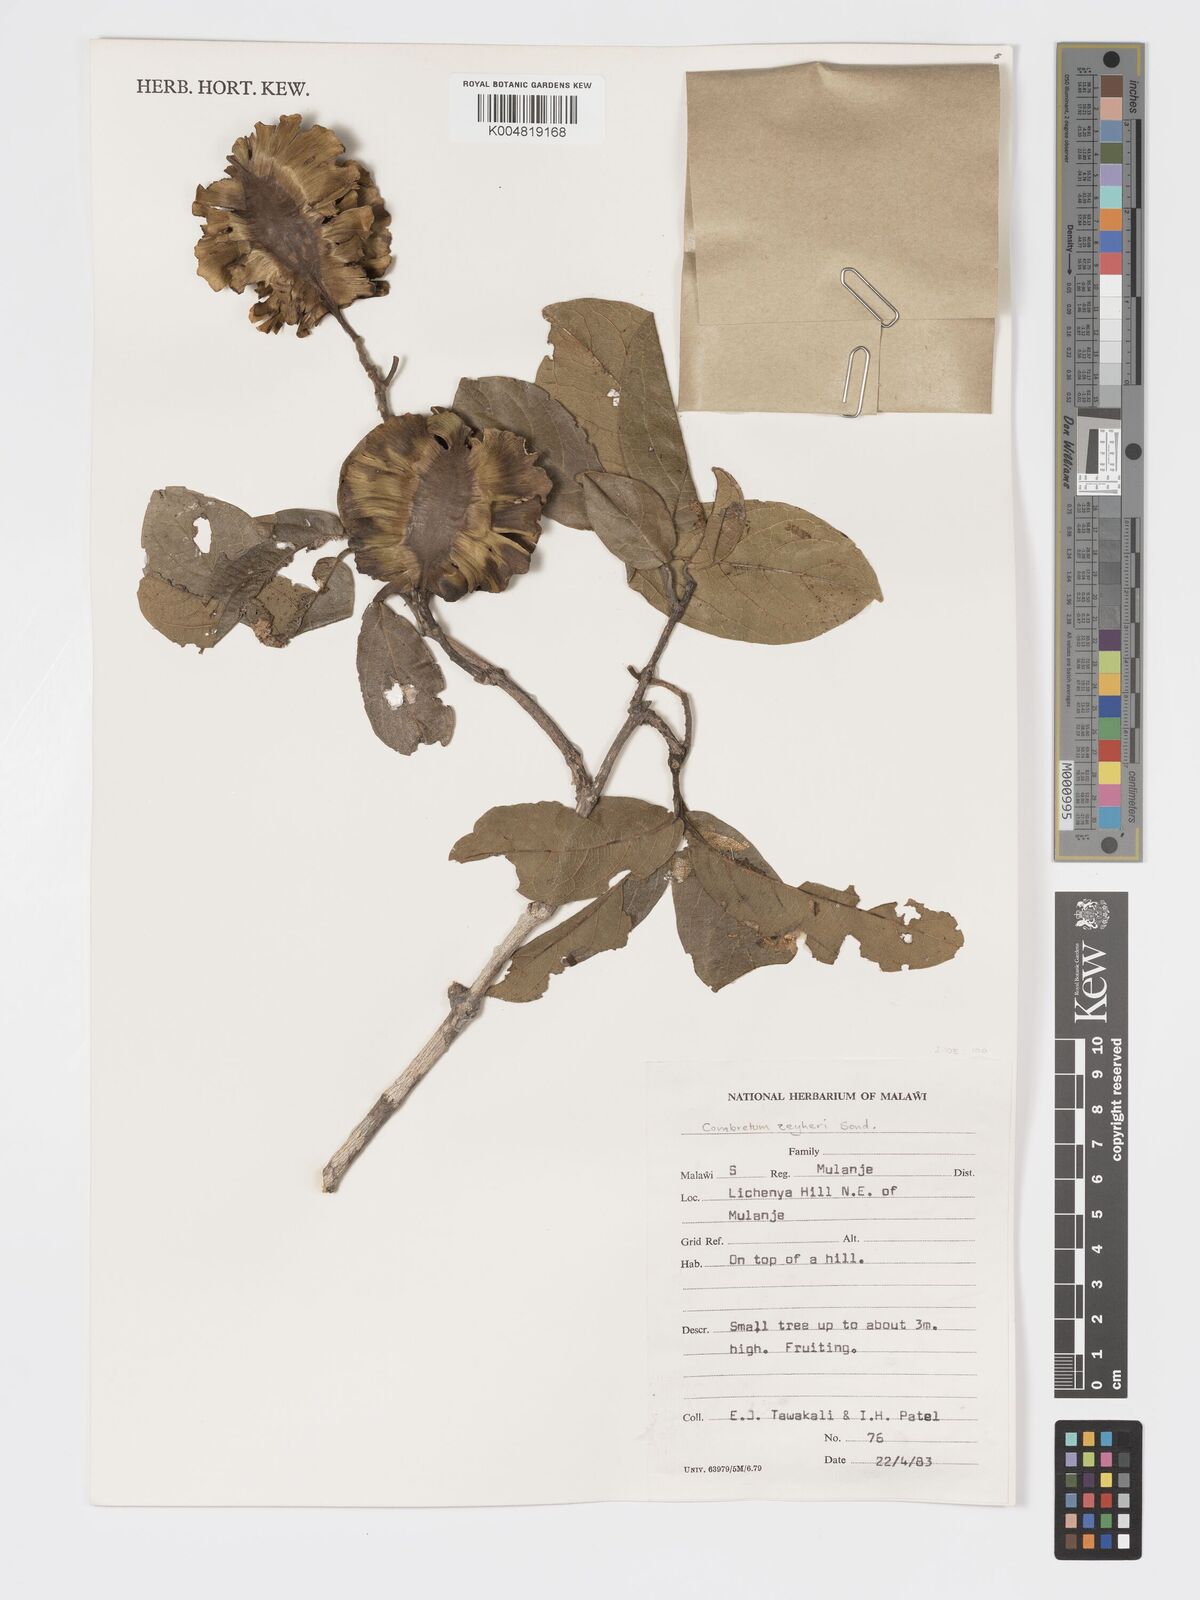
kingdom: Plantae
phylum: Tracheophyta
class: Magnoliopsida
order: Myrtales
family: Combretaceae
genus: Combretum
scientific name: Combretum zeyheri
